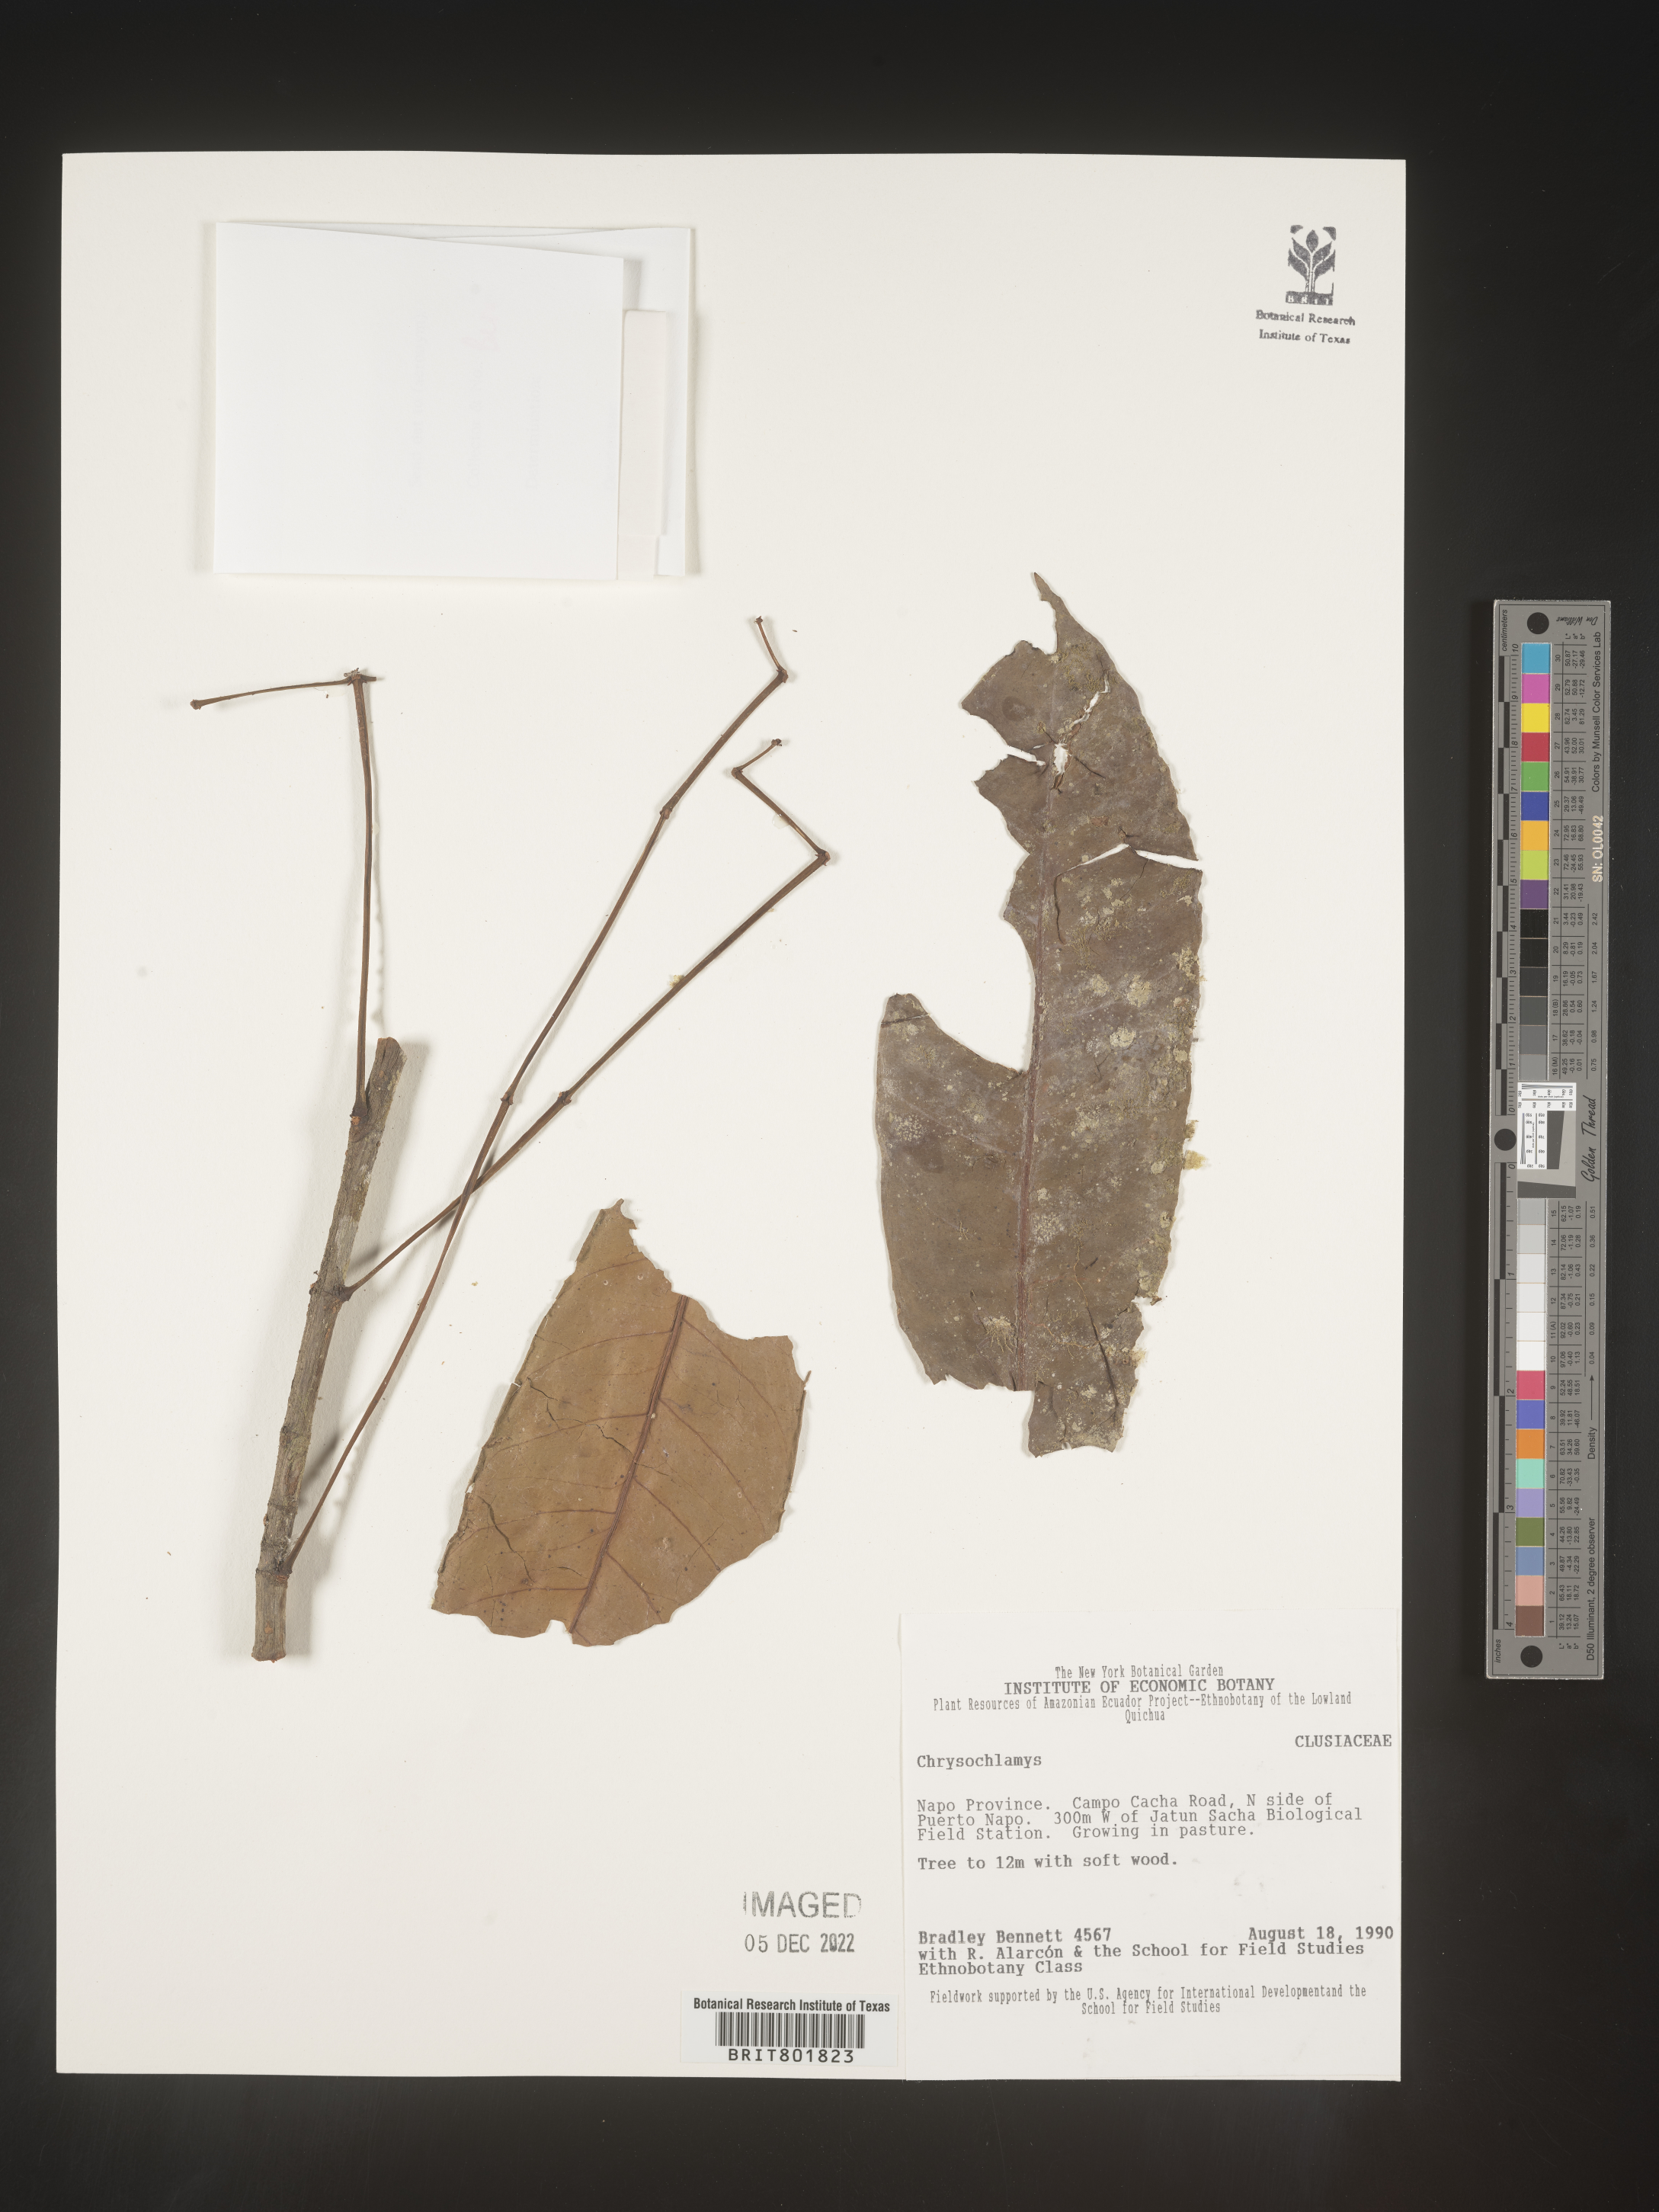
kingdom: Plantae
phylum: Tracheophyta
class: Magnoliopsida
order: Malpighiales
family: Clusiaceae
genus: Chrysochlamys
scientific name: Chrysochlamys
